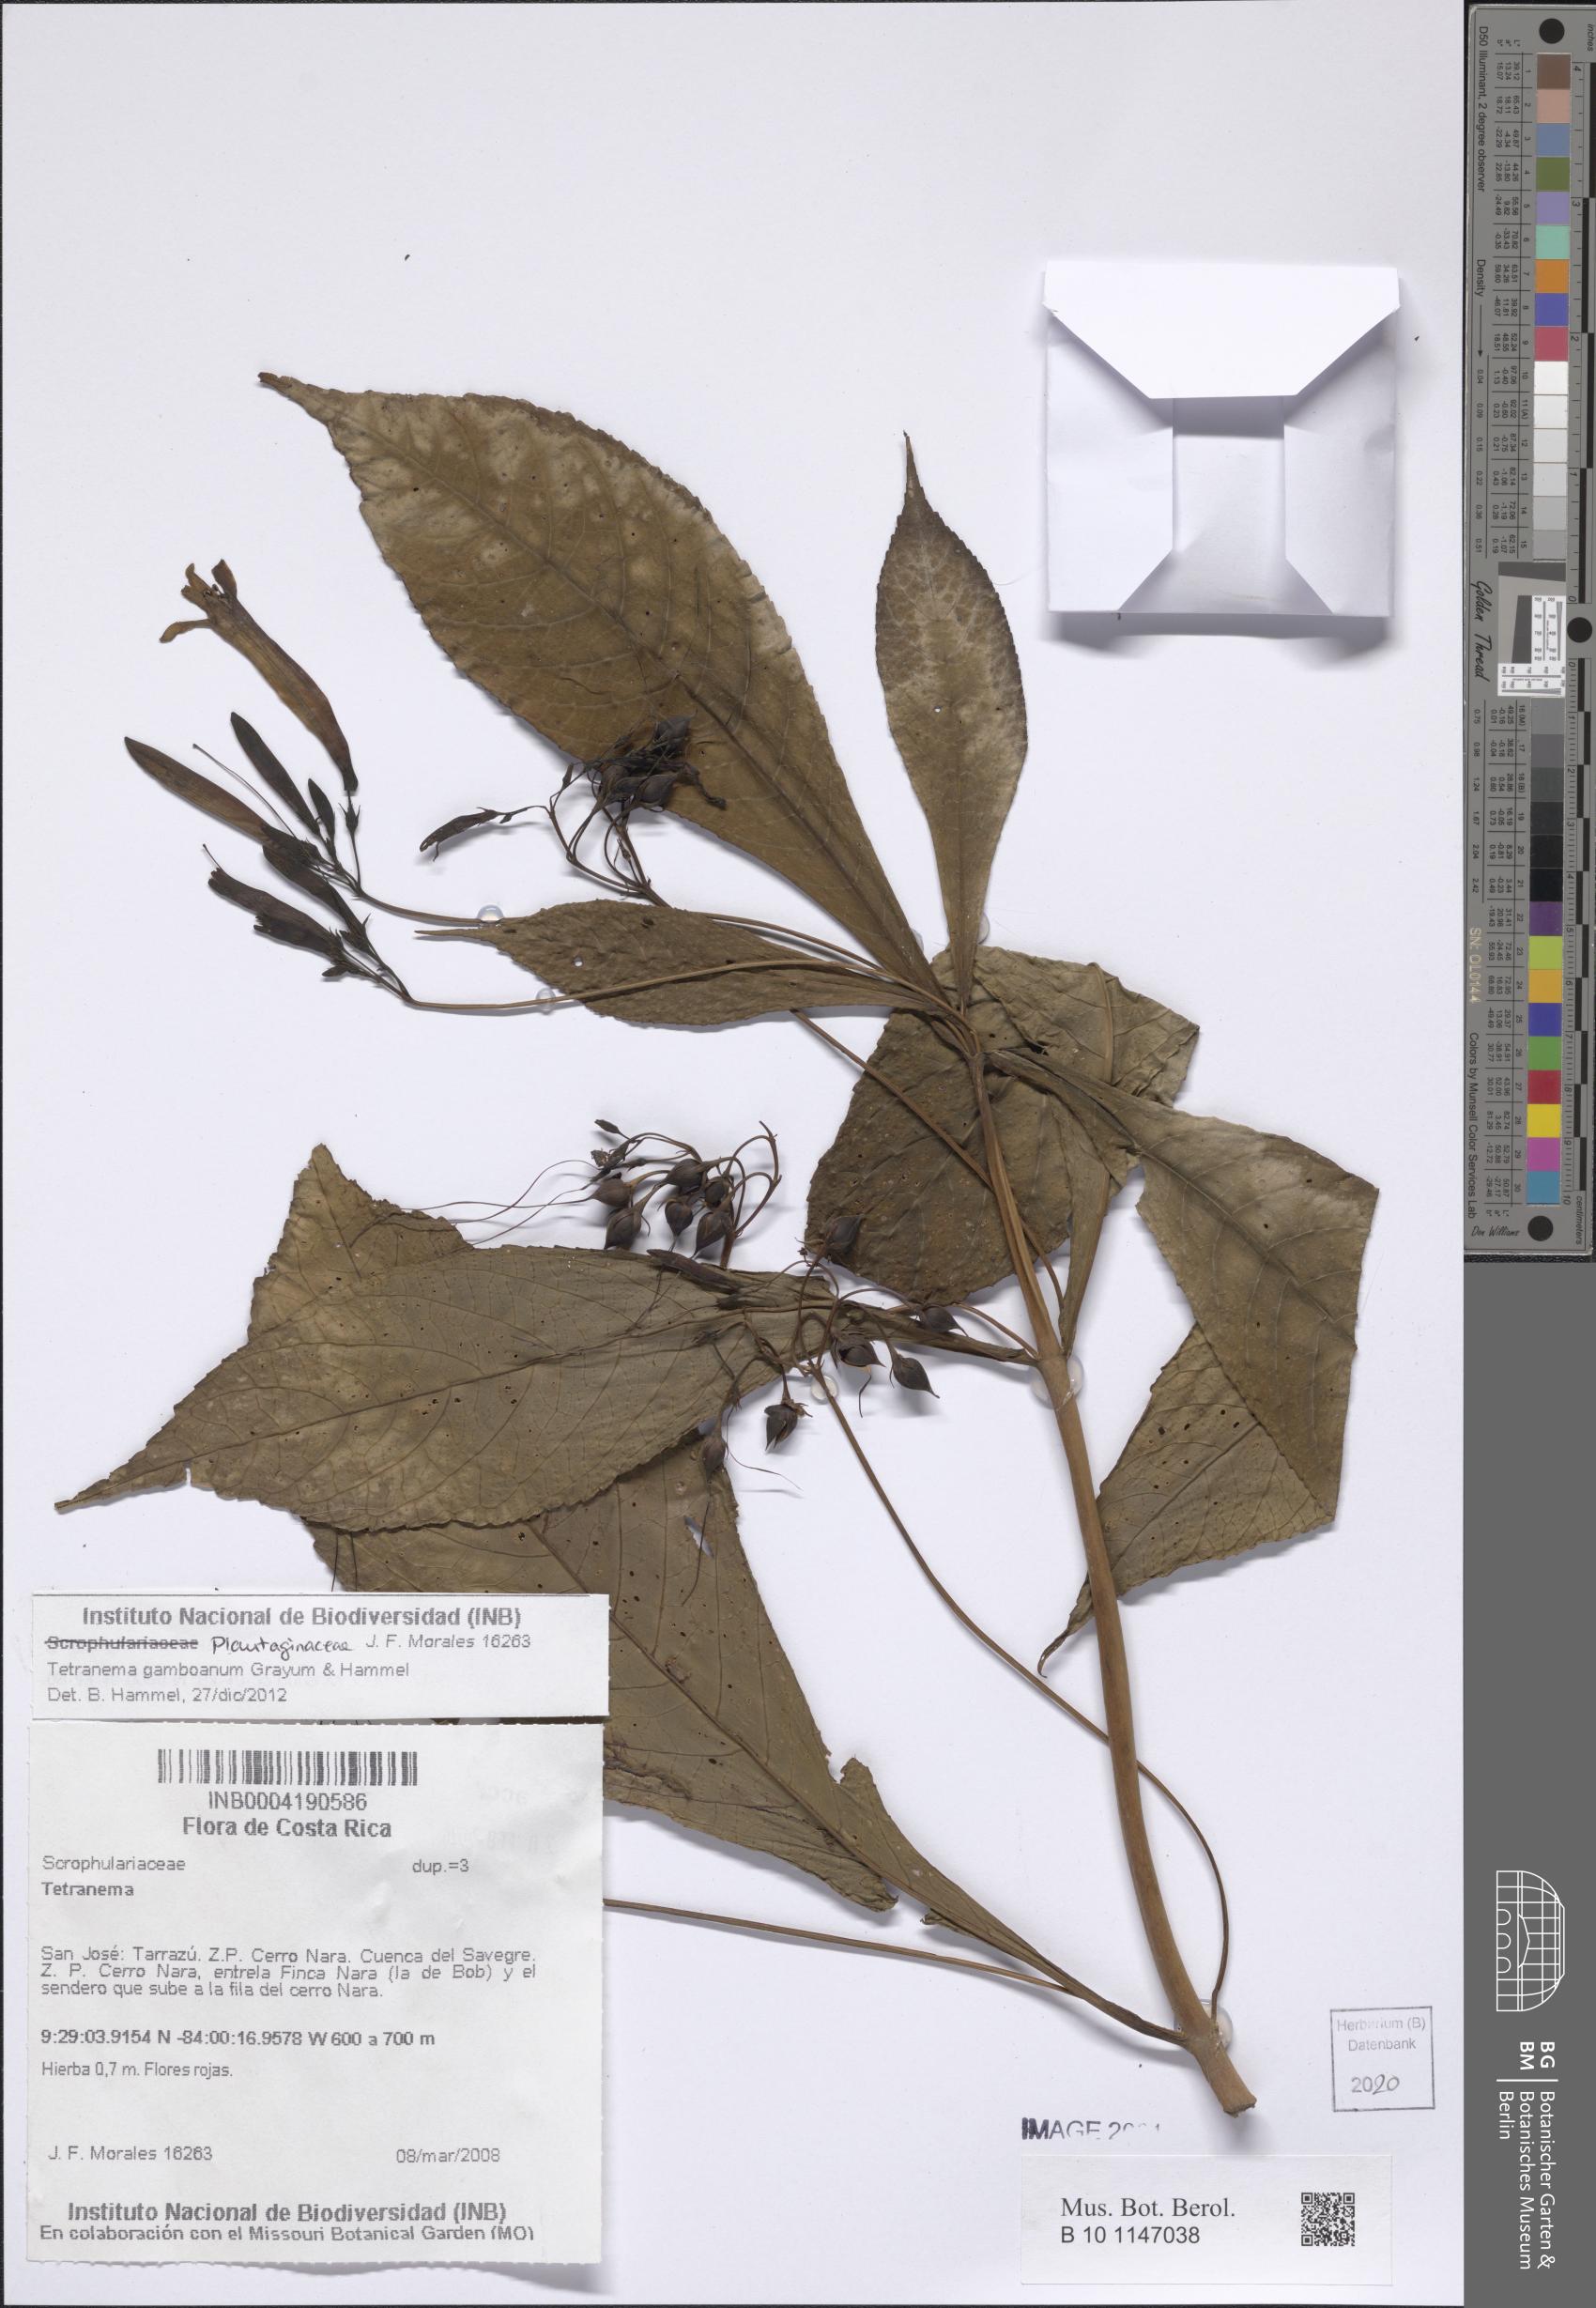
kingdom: Plantae
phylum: Tracheophyta
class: Magnoliopsida
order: Lamiales
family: Plantaginaceae
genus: Tetranema
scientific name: Tetranema gamboanum
